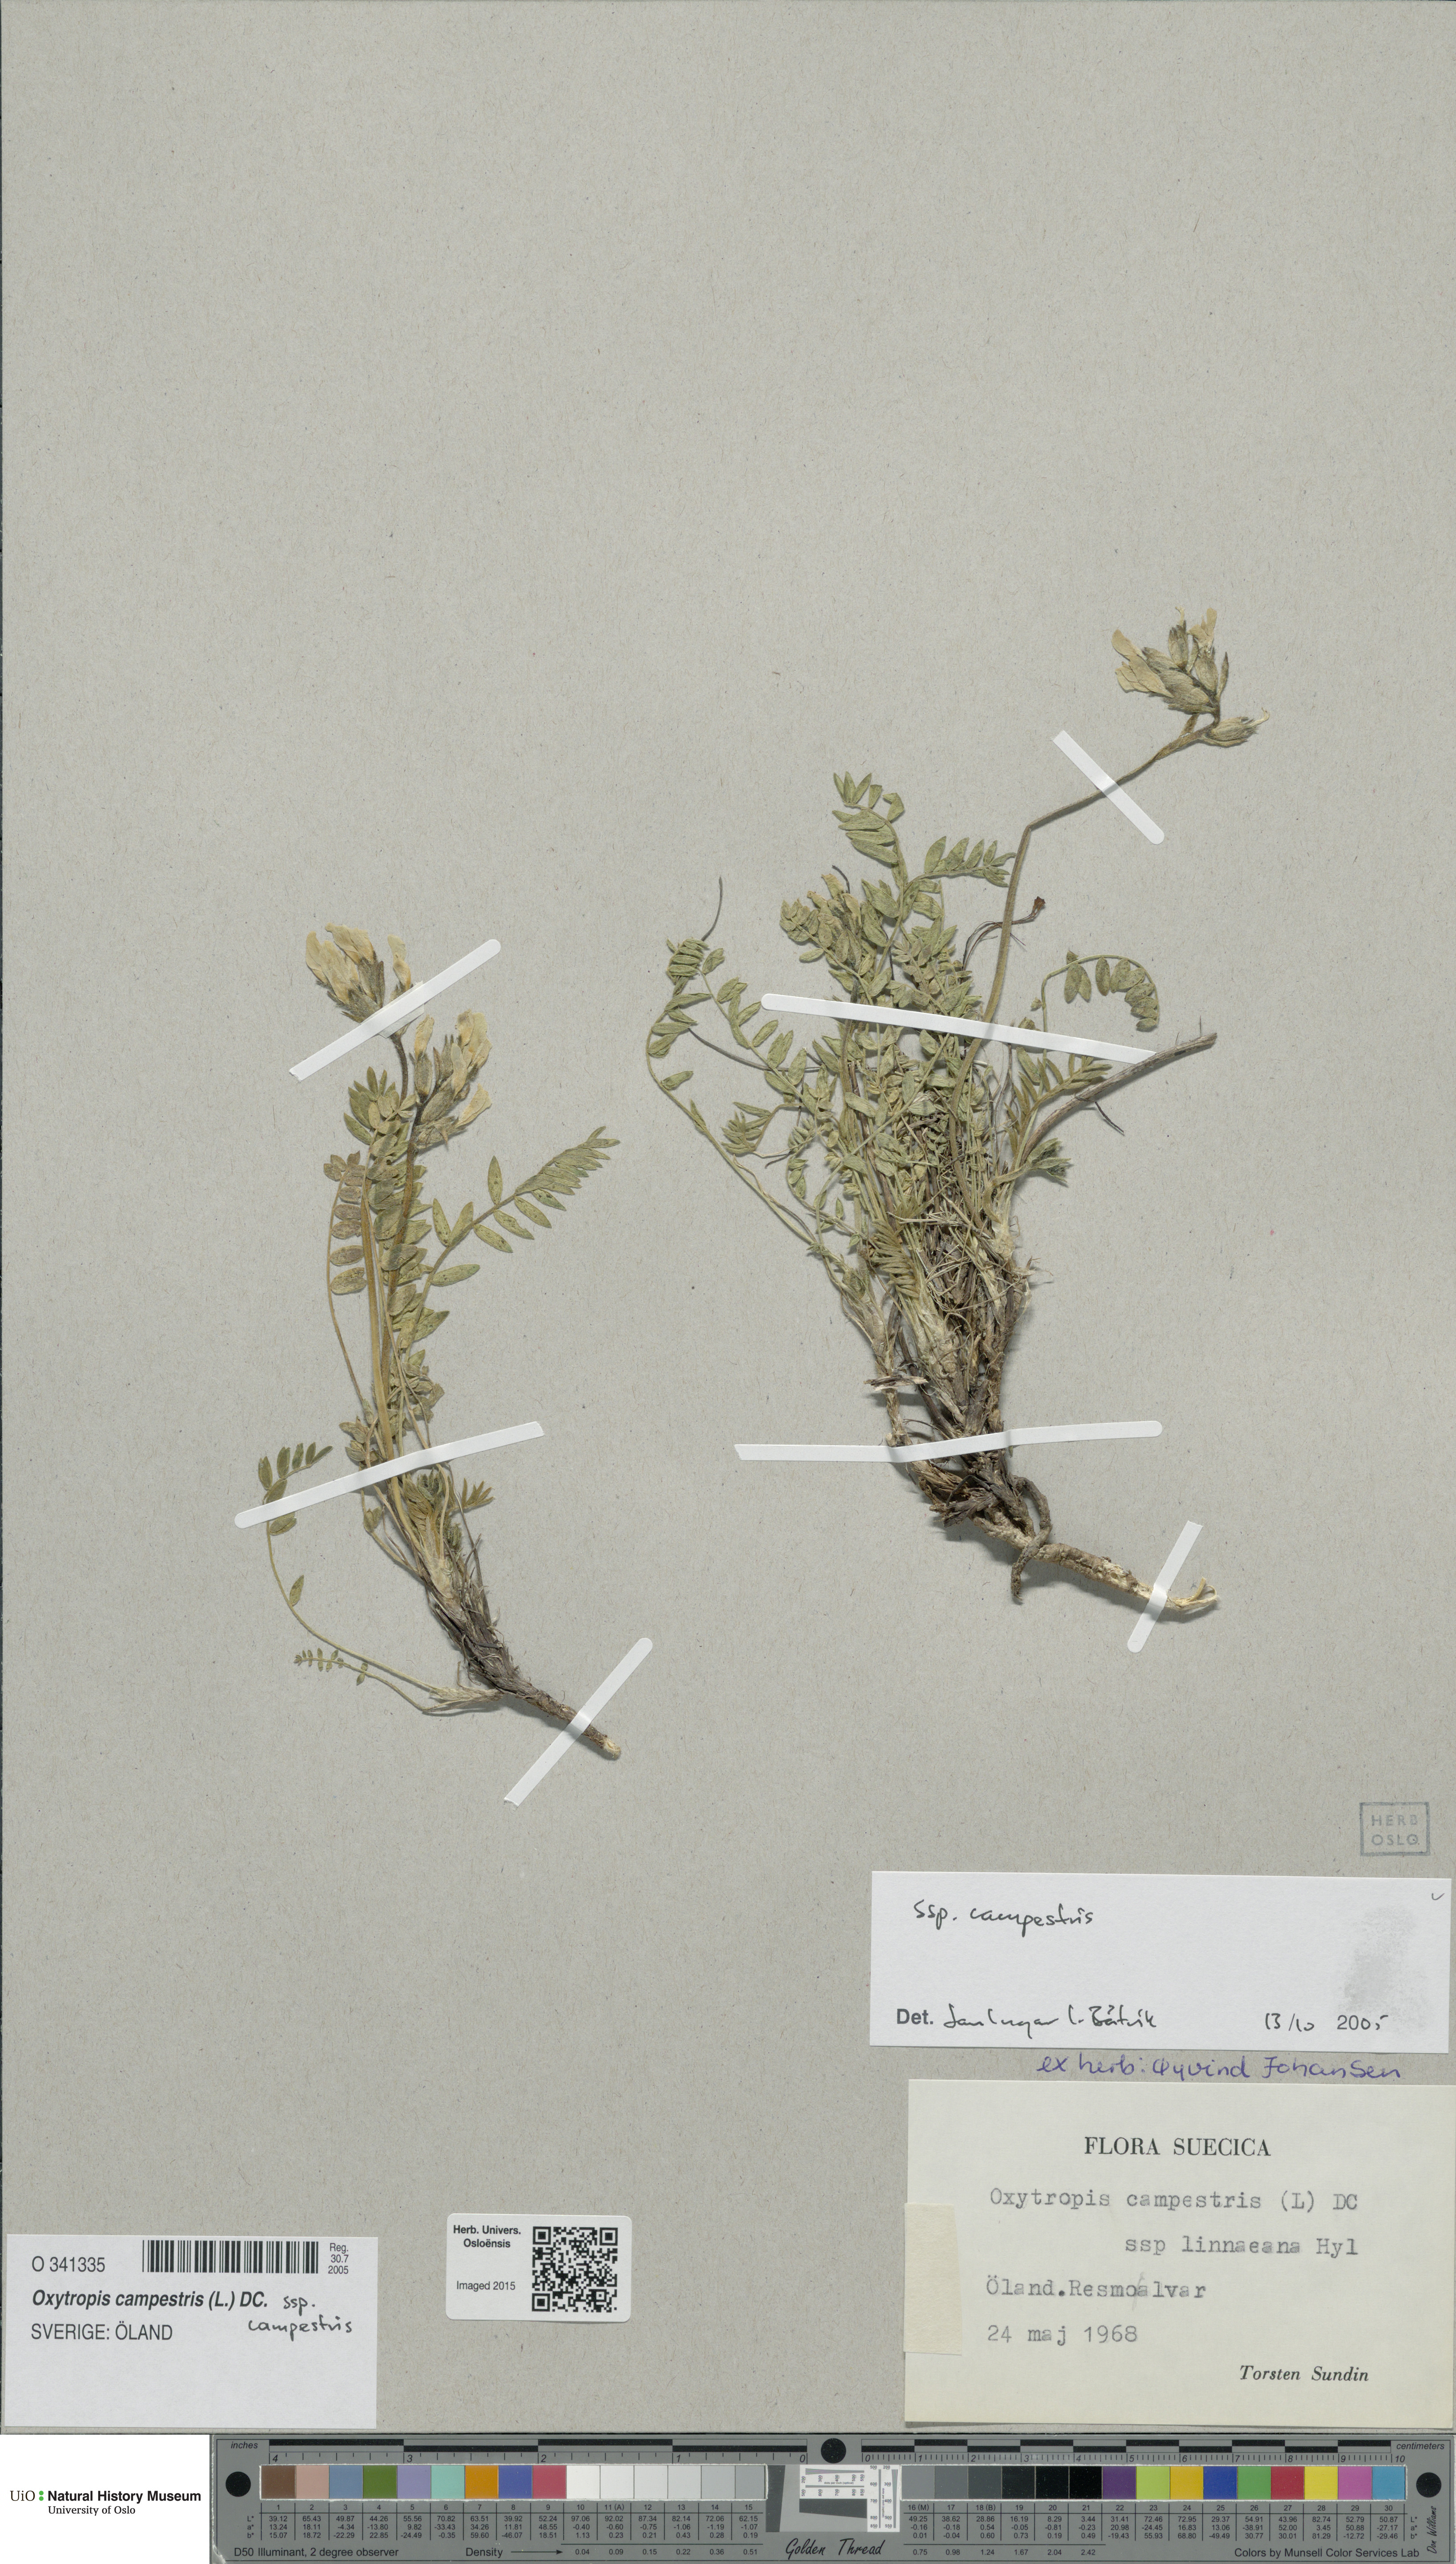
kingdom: Plantae
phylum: Tracheophyta
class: Magnoliopsida
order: Fabales
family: Fabaceae
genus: Oxytropis
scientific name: Oxytropis campestris
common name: Field locoweed
